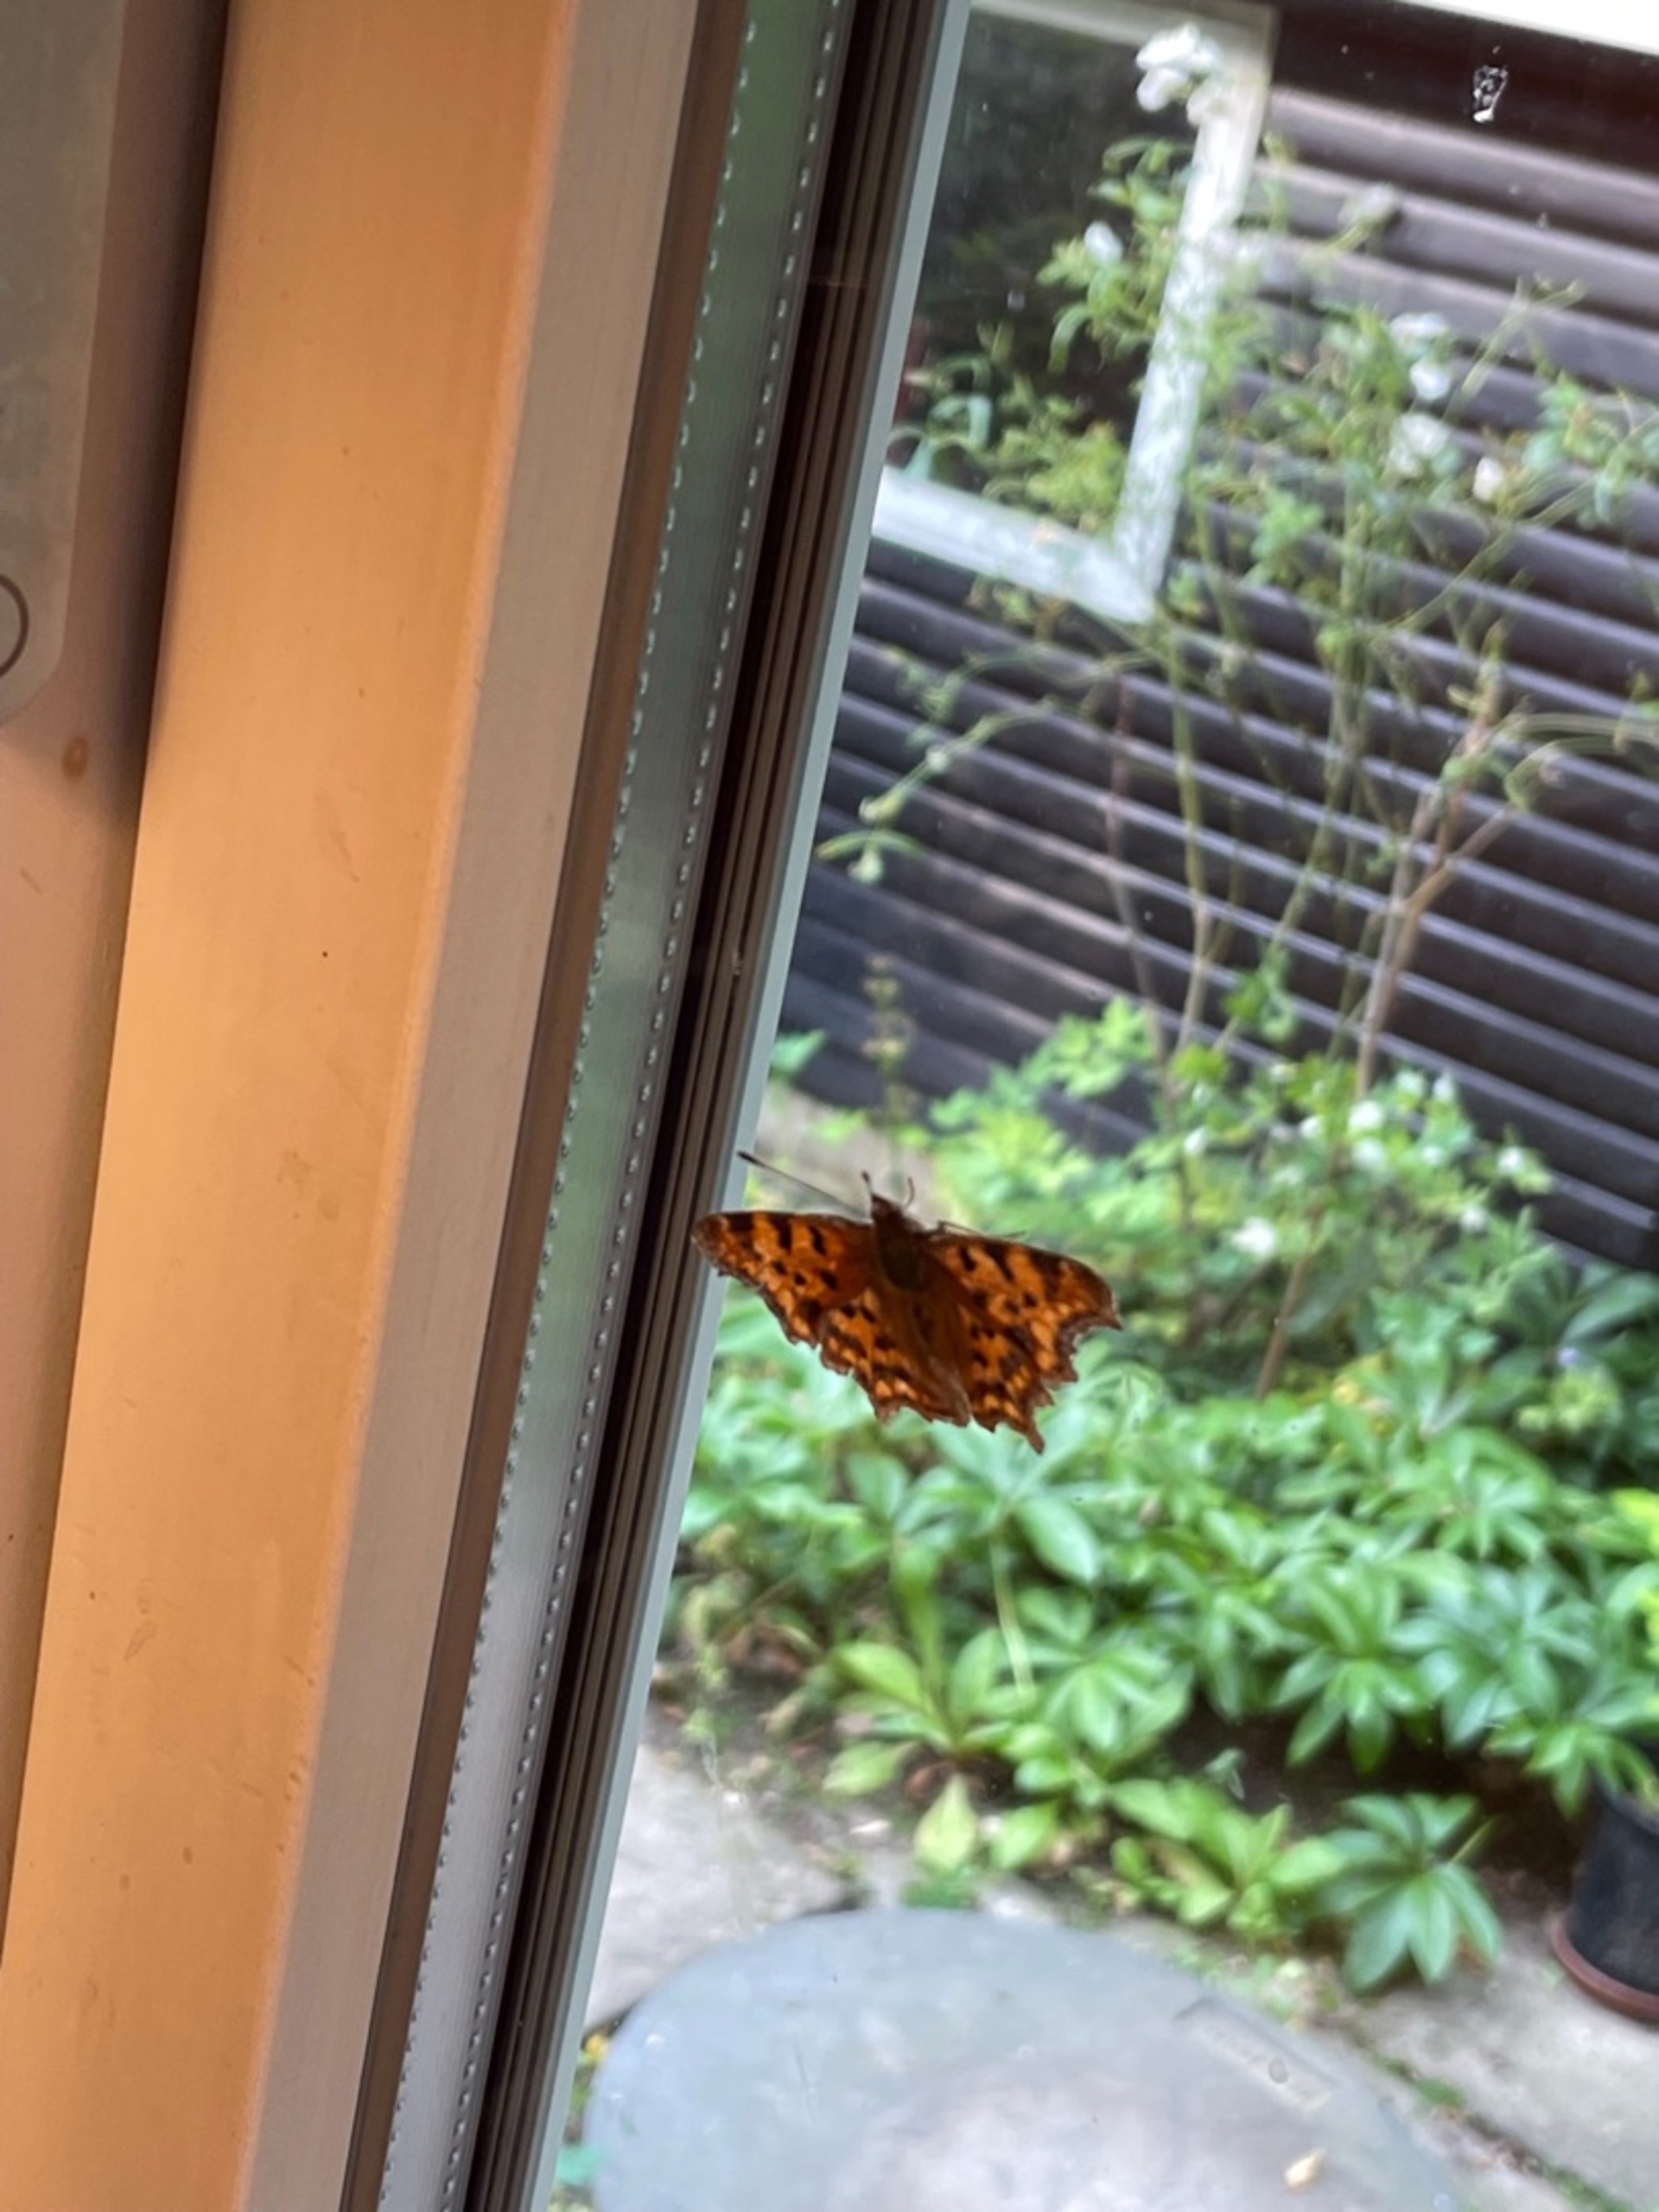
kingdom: Animalia
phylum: Arthropoda
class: Insecta
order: Lepidoptera
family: Nymphalidae
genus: Polygonia
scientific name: Polygonia c-album
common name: Det hvide C
